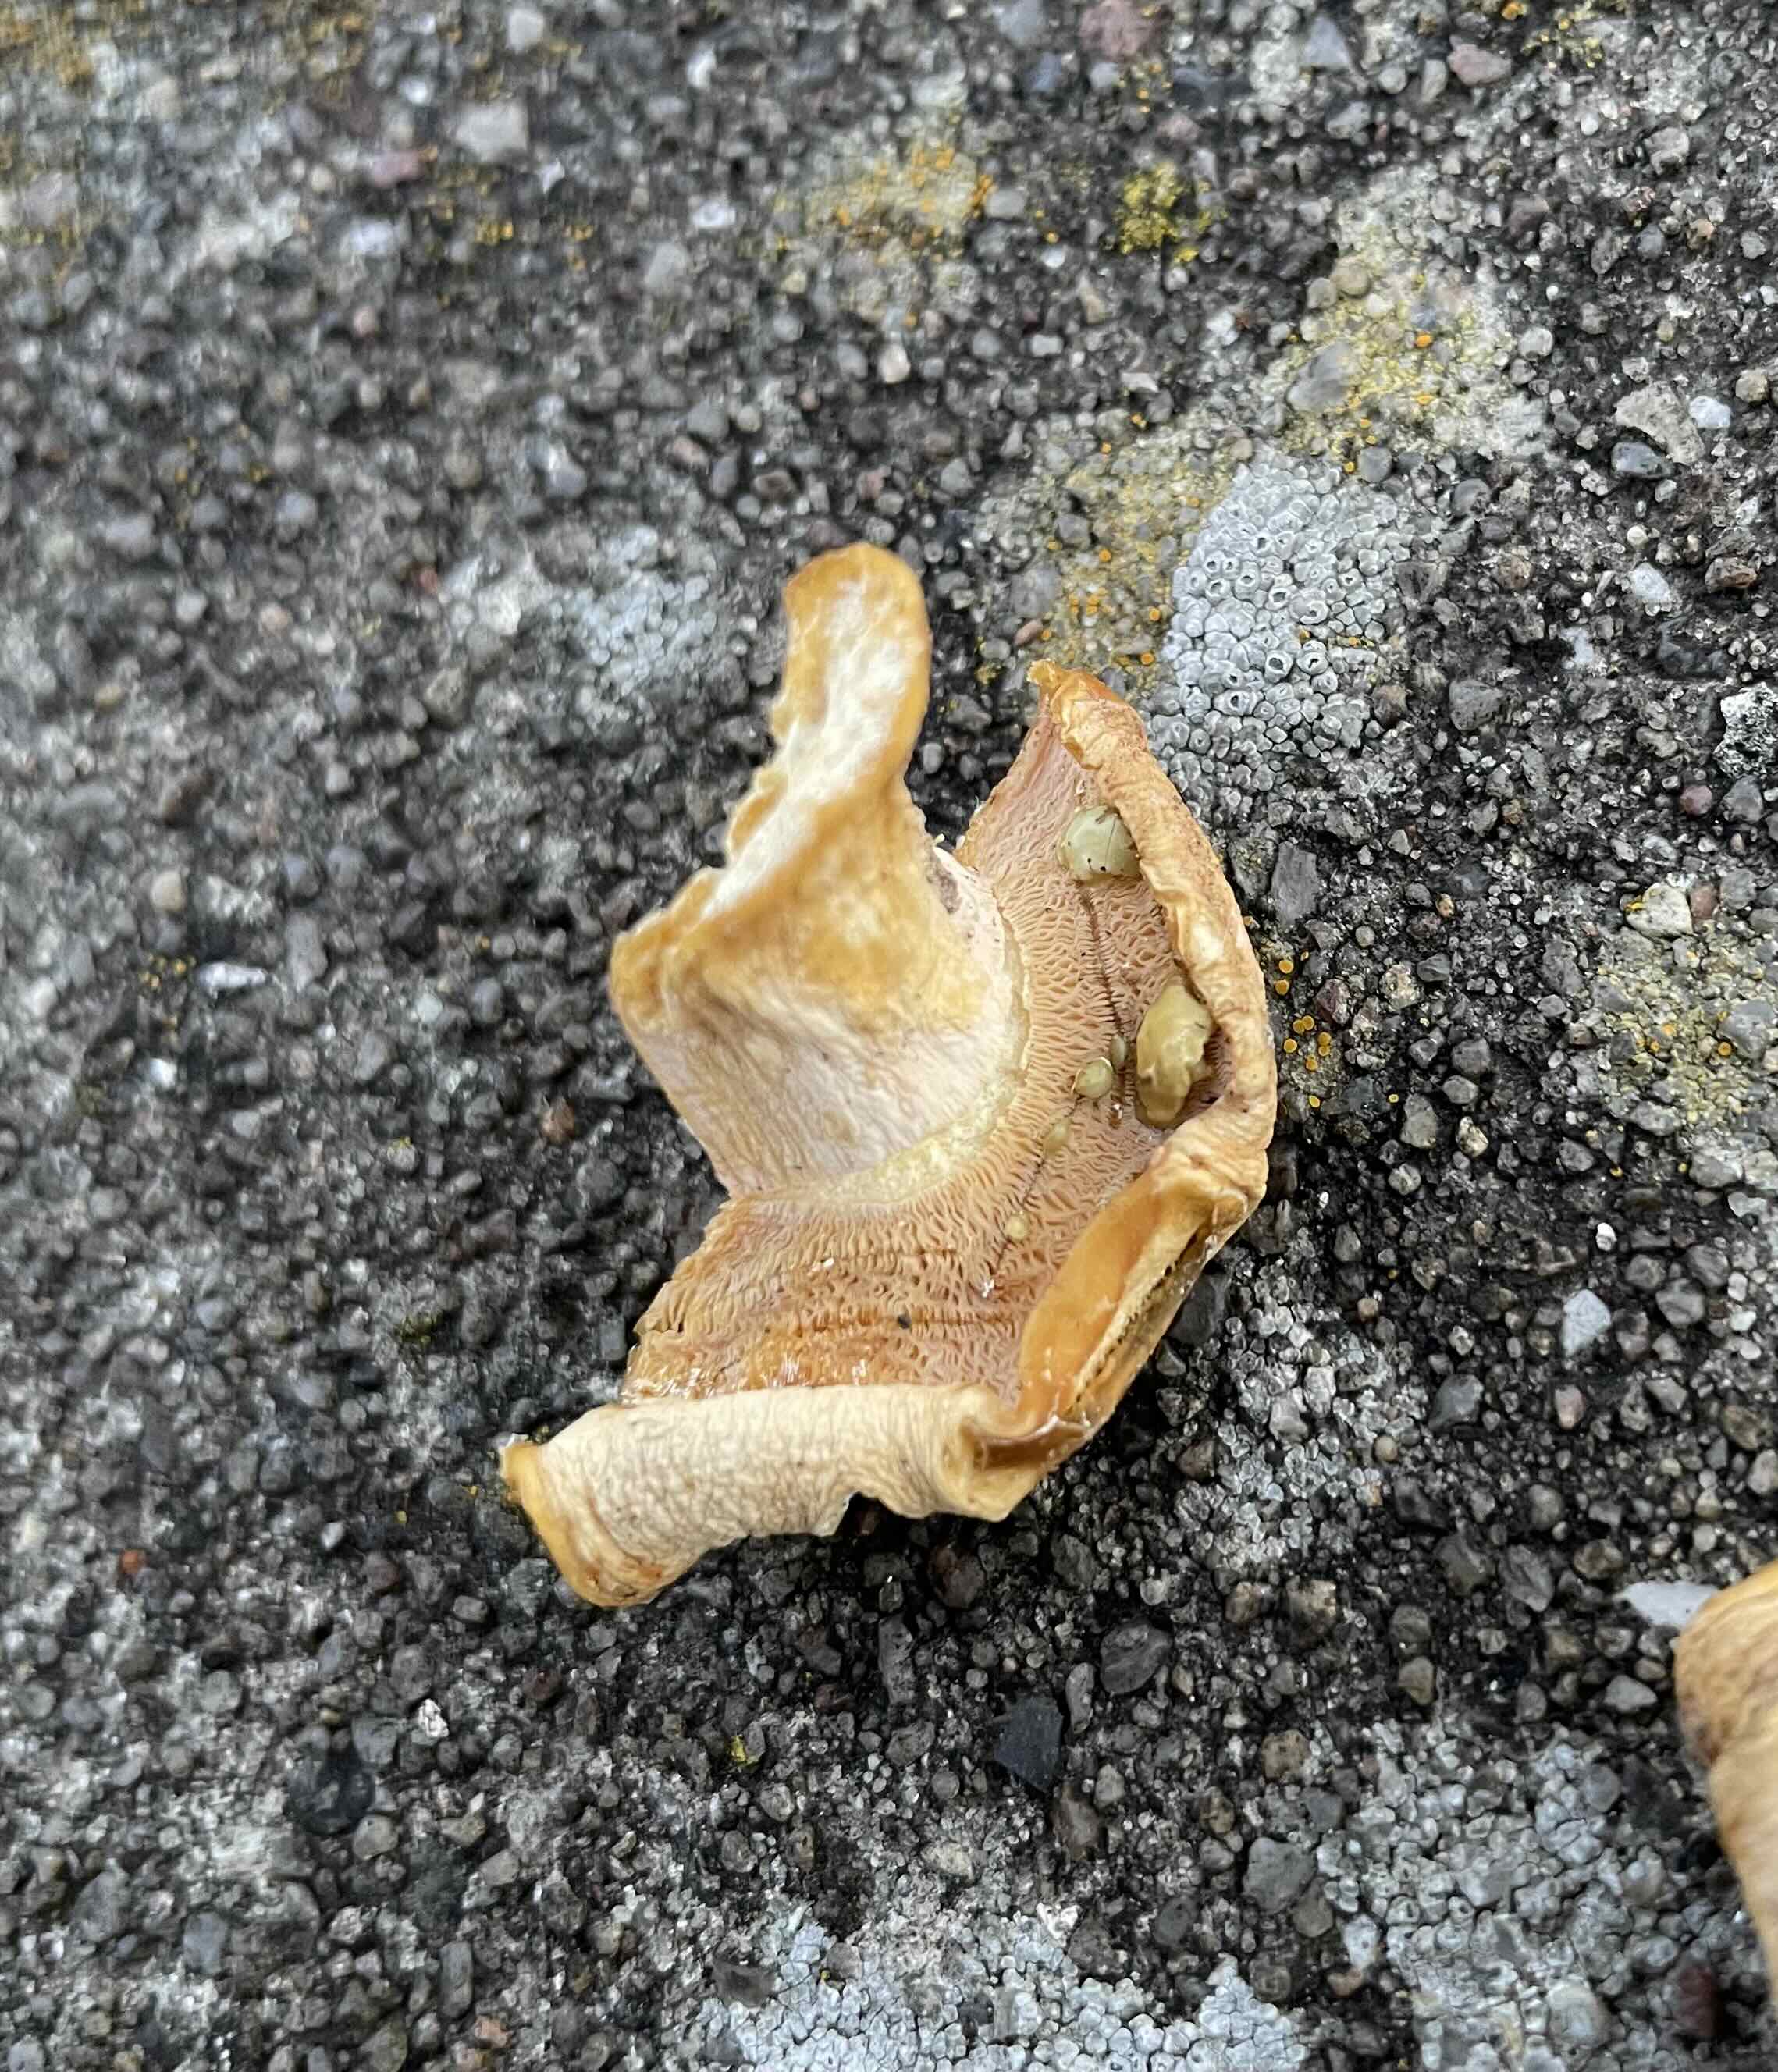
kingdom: Fungi
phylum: Basidiomycota
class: Agaricomycetes
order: Russulales
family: Russulaceae
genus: Lactifluus
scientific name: Lactifluus
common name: mælkehat
